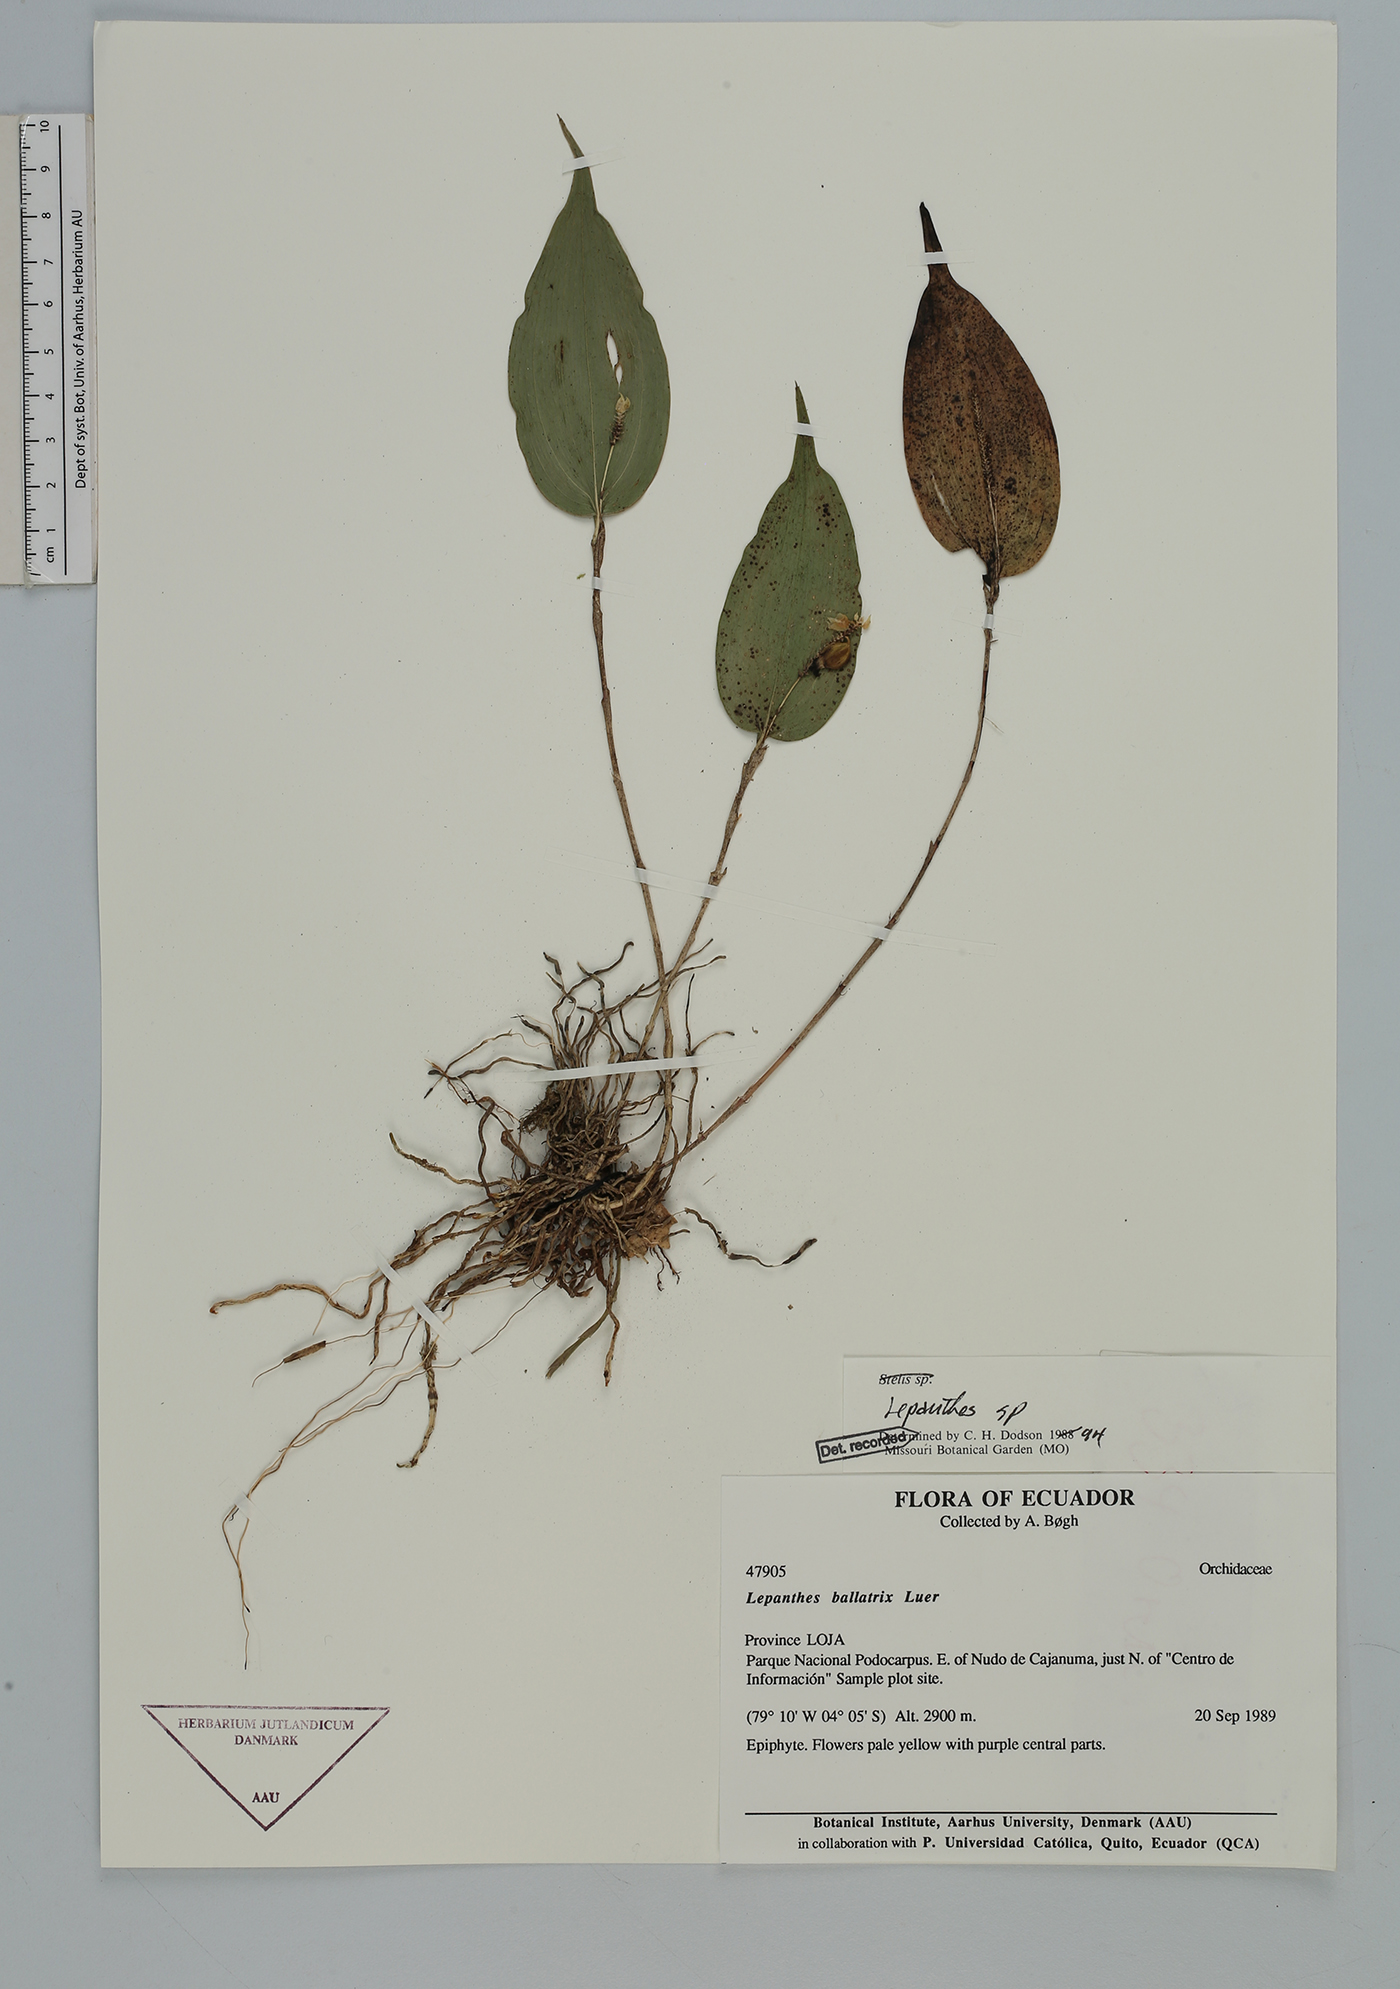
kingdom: Plantae
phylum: Tracheophyta
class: Liliopsida
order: Asparagales
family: Orchidaceae
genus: Lepanthes
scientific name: Lepanthes
